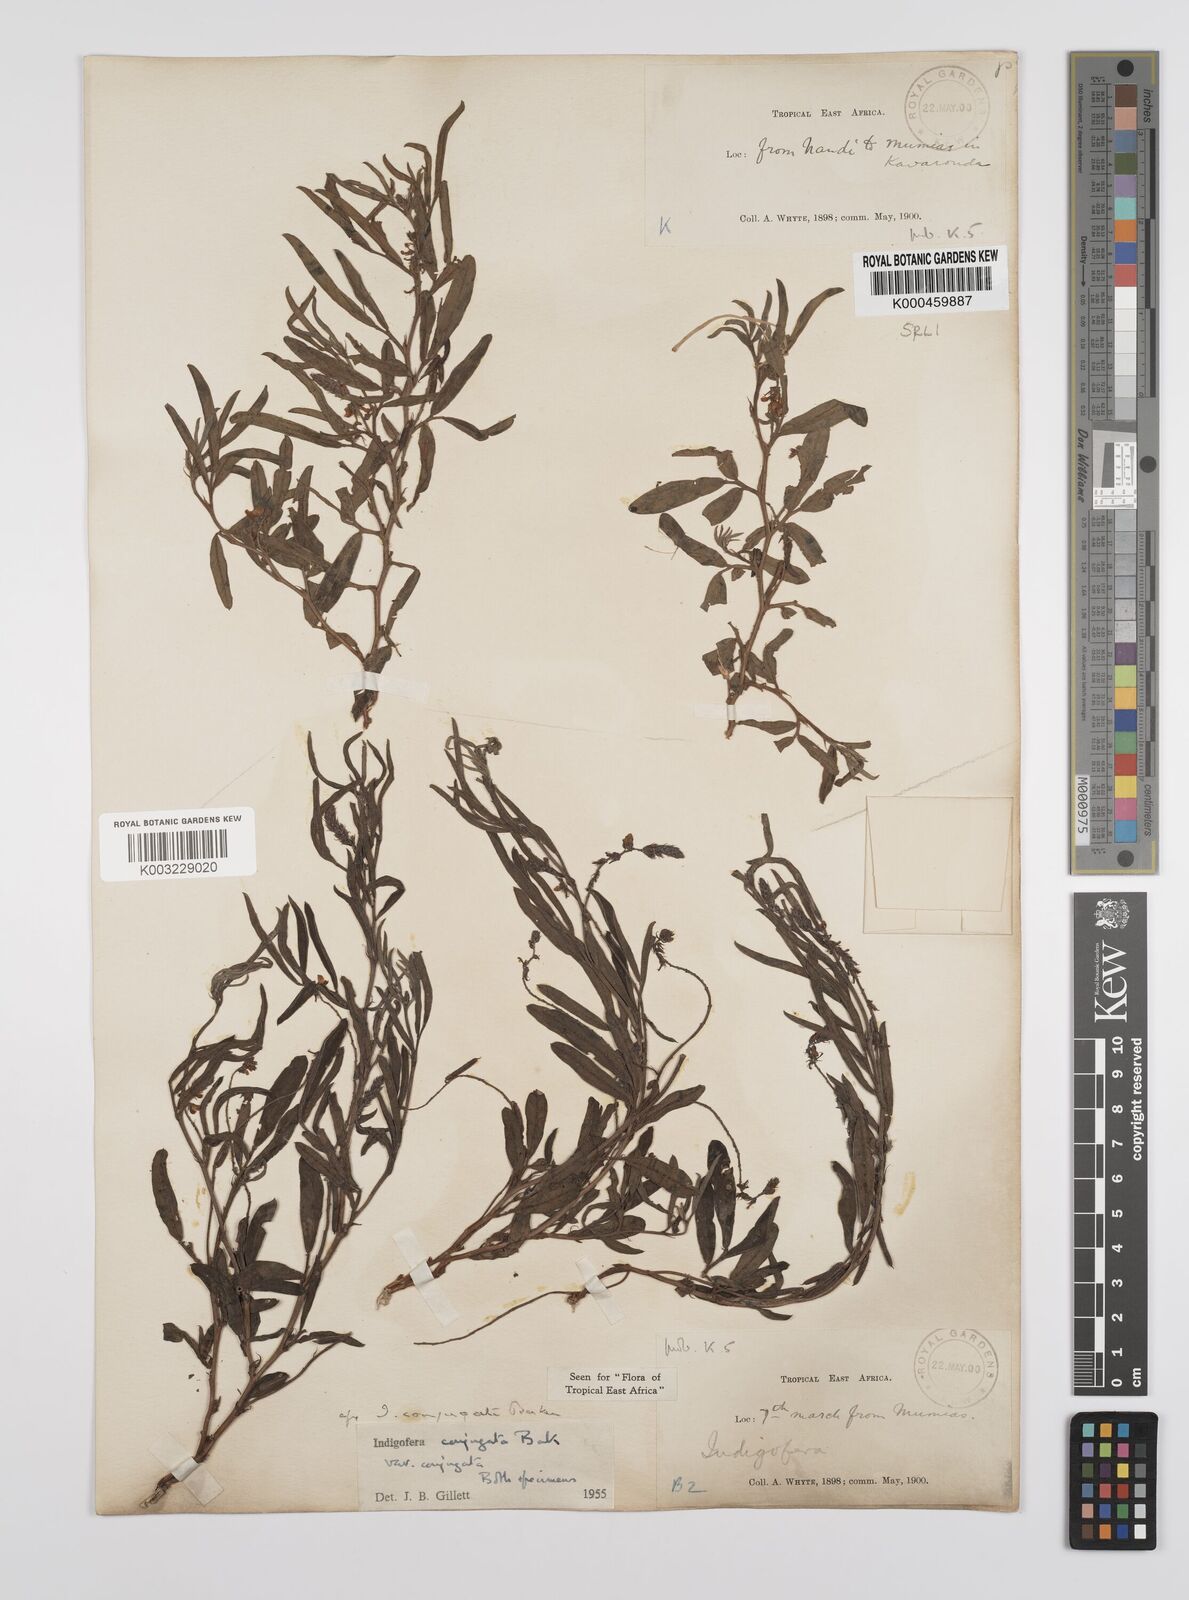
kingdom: Plantae
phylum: Tracheophyta
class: Magnoliopsida
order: Fabales
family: Fabaceae
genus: Indigofera
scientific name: Indigofera conjugata
